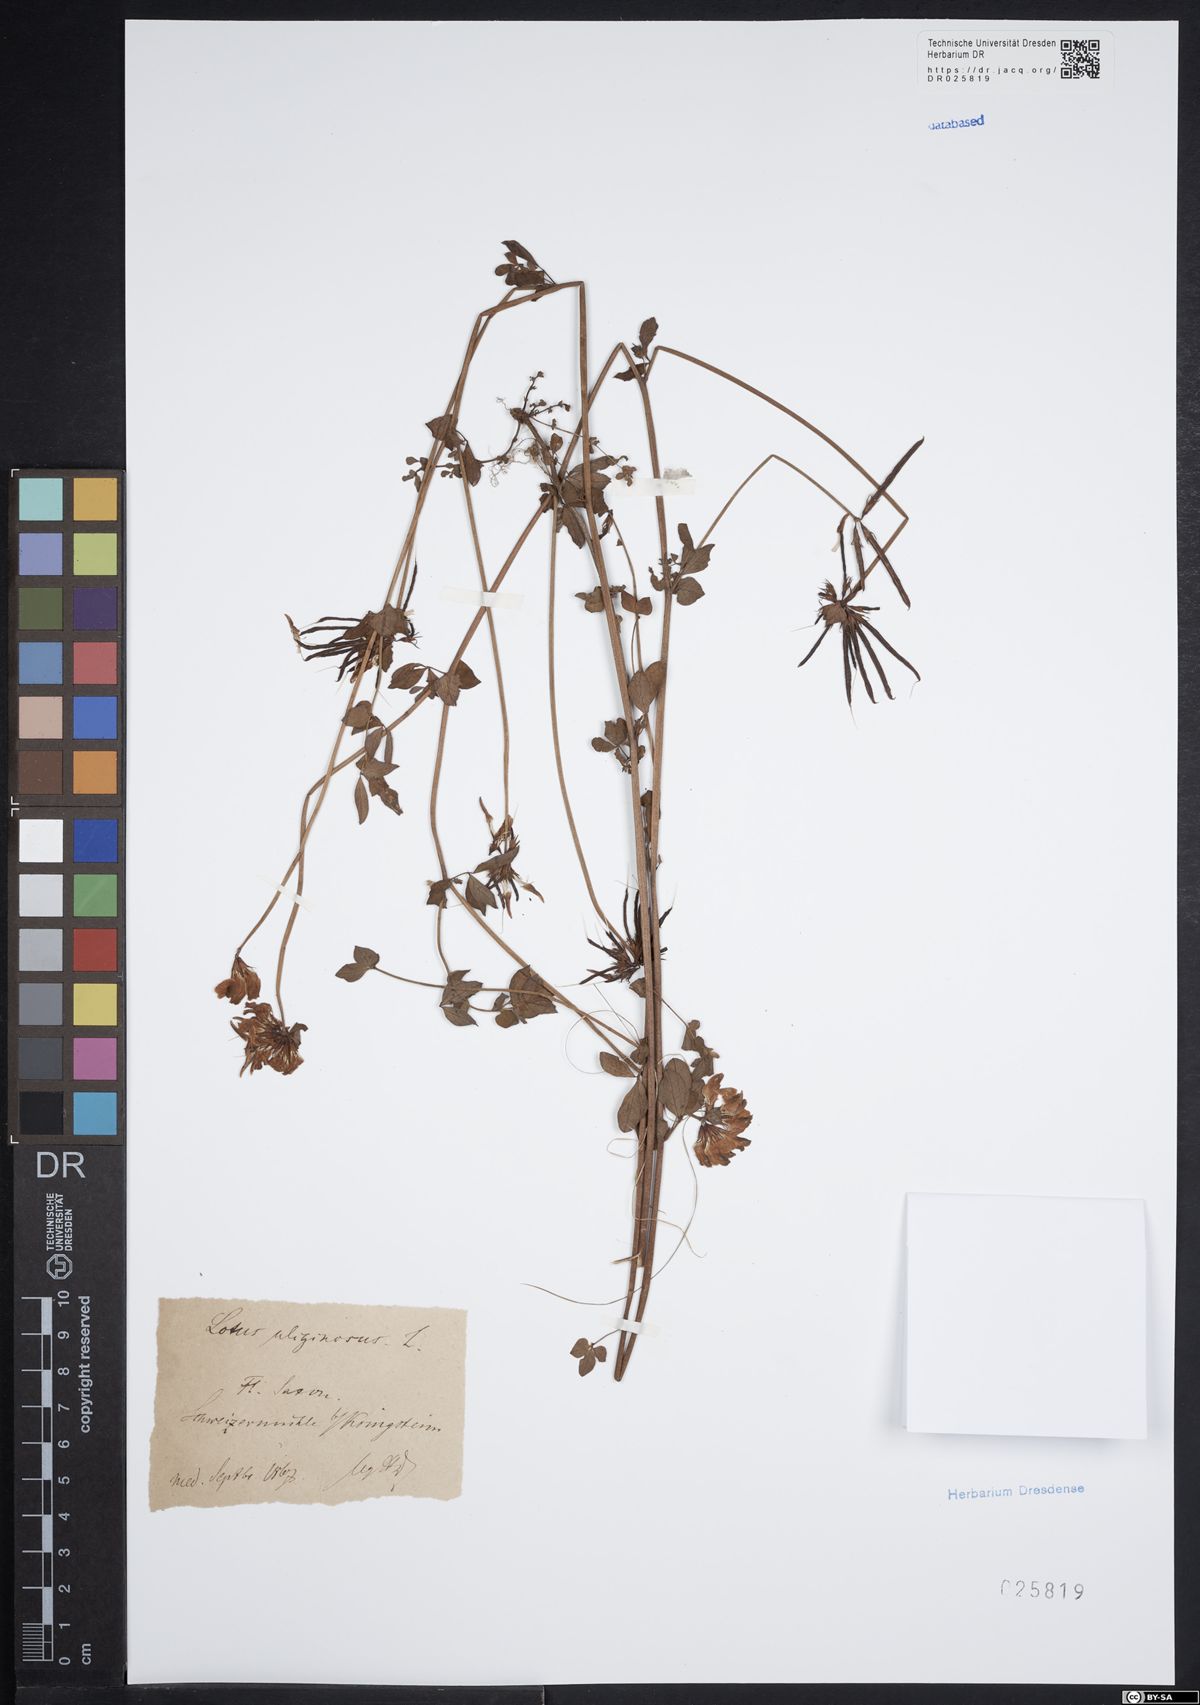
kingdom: Plantae
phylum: Tracheophyta
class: Magnoliopsida
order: Fabales
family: Fabaceae
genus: Lotus
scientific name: Lotus pedunculatus
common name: Greater birdsfoot-trefoil
